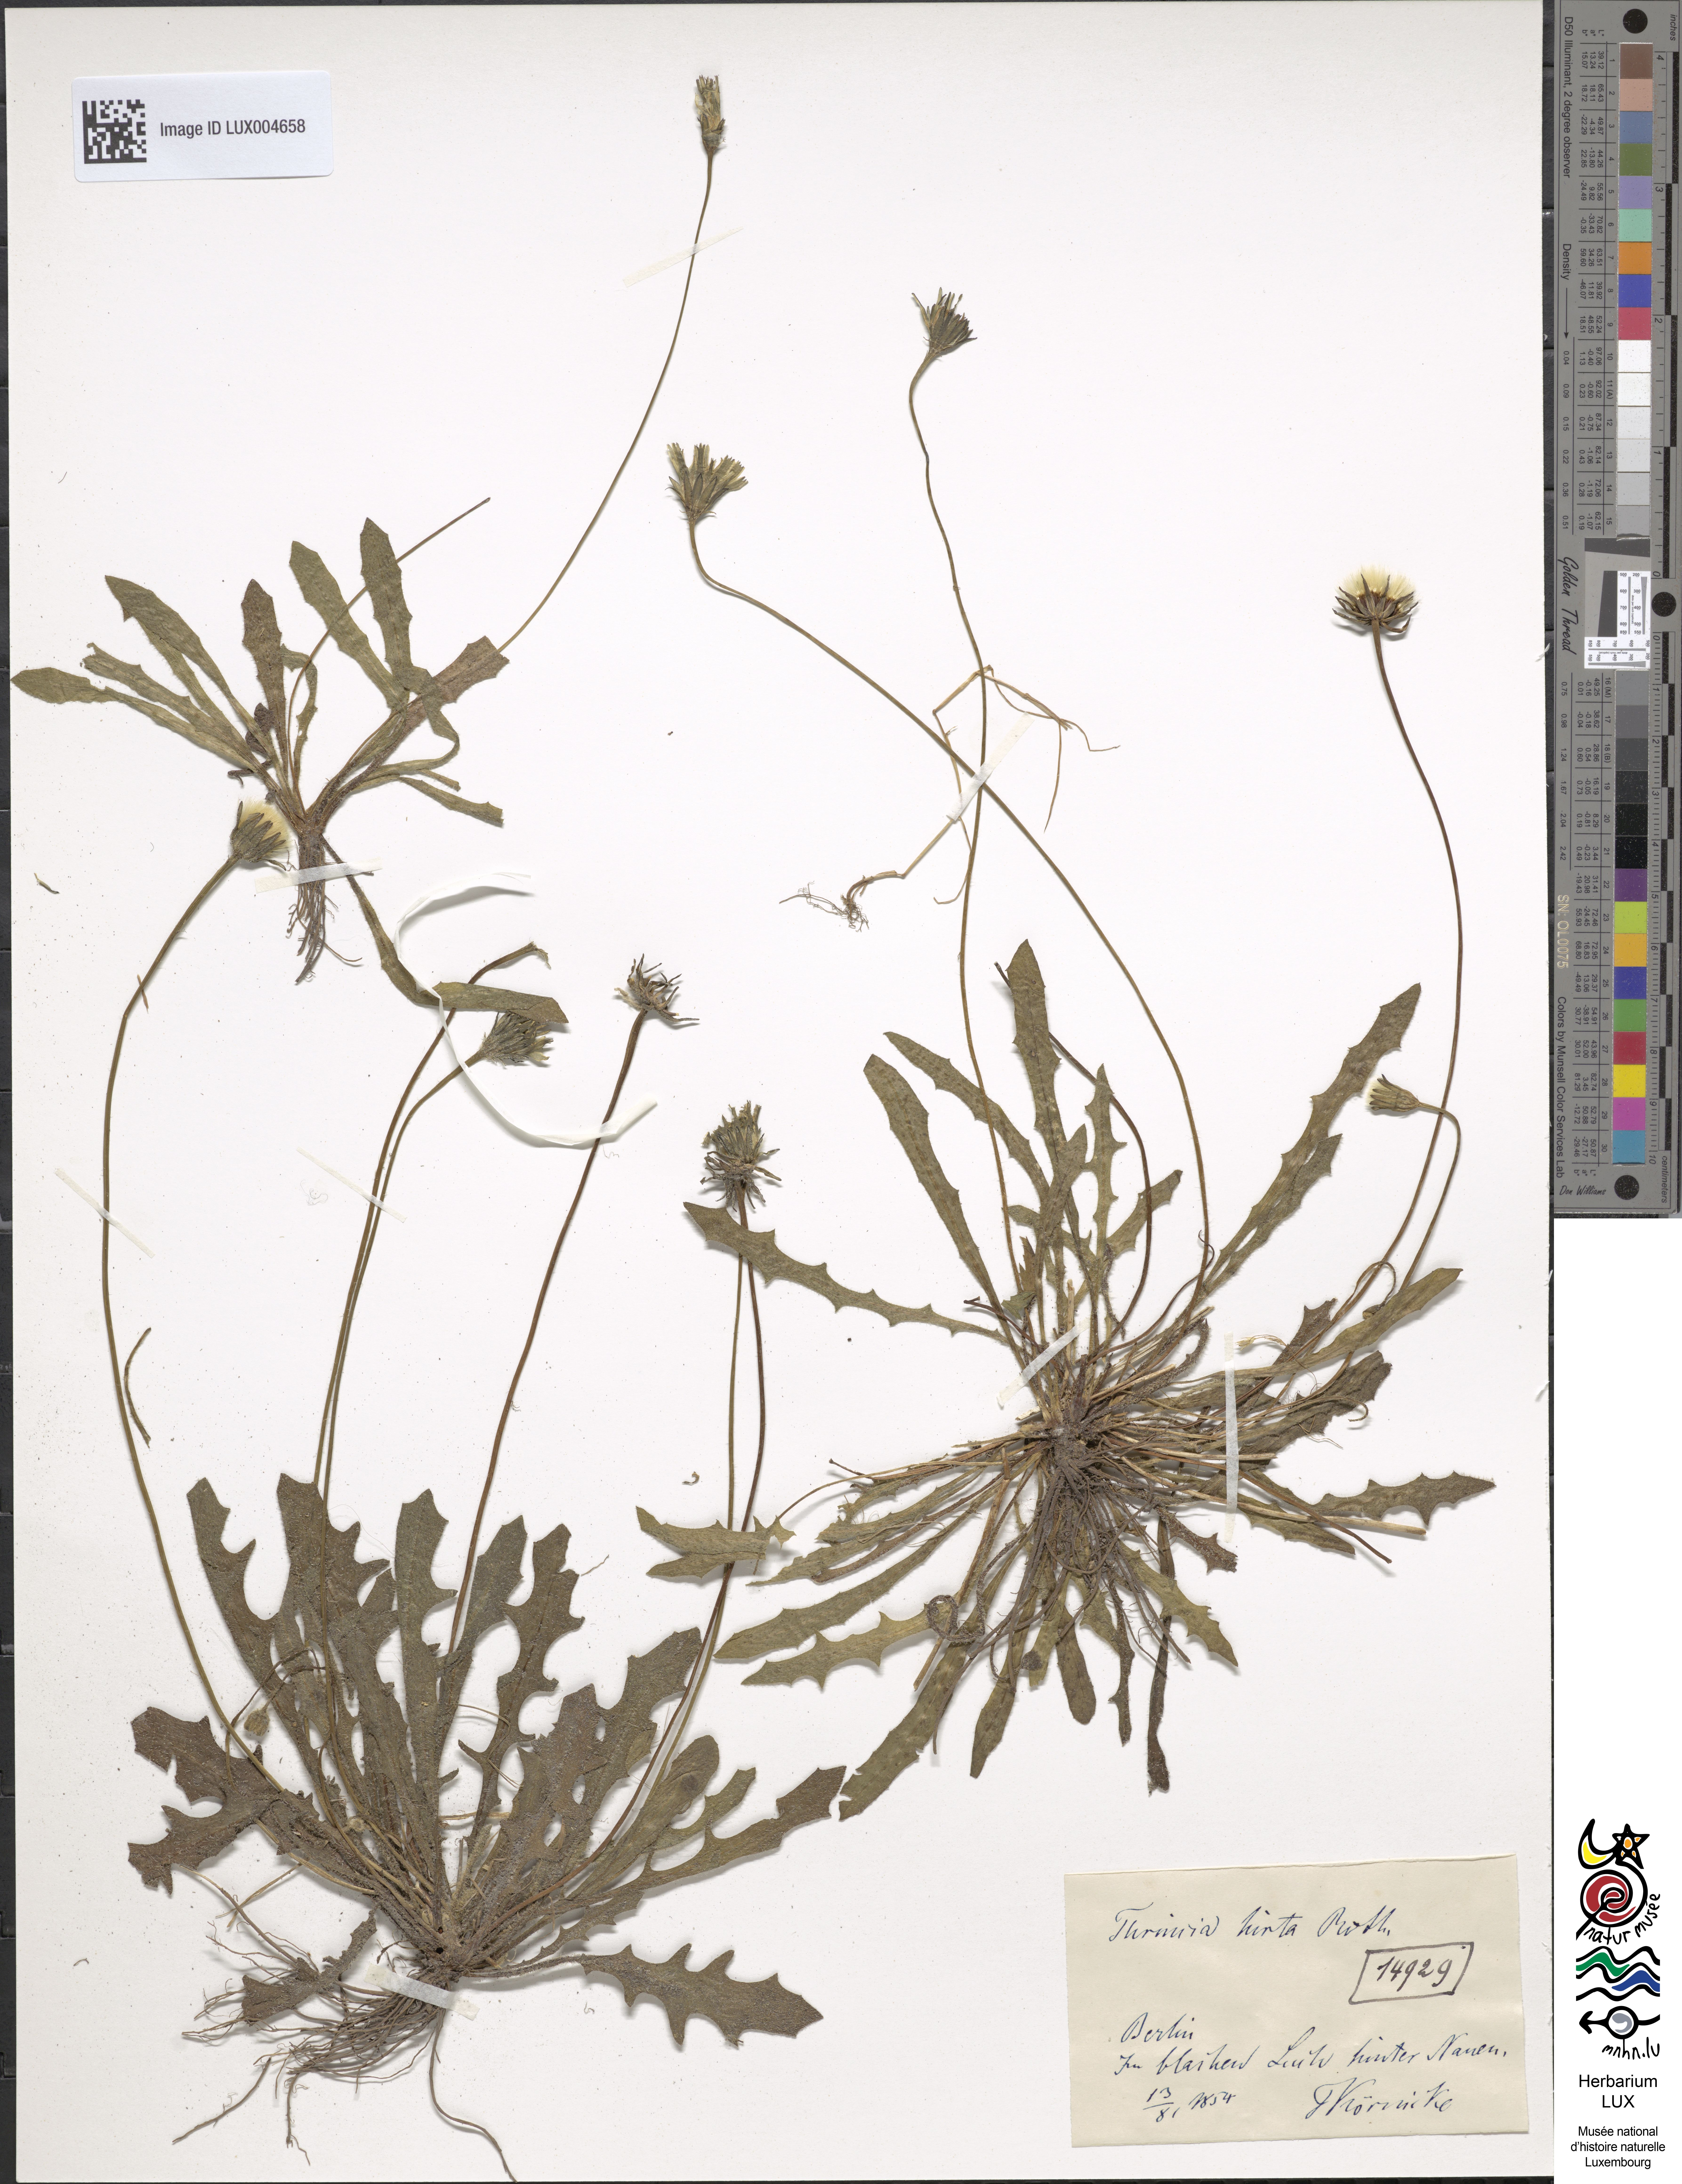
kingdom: Plantae
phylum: Tracheophyta
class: Magnoliopsida
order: Asterales
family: Asteraceae
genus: Leontodon
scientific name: Leontodon hirtus
